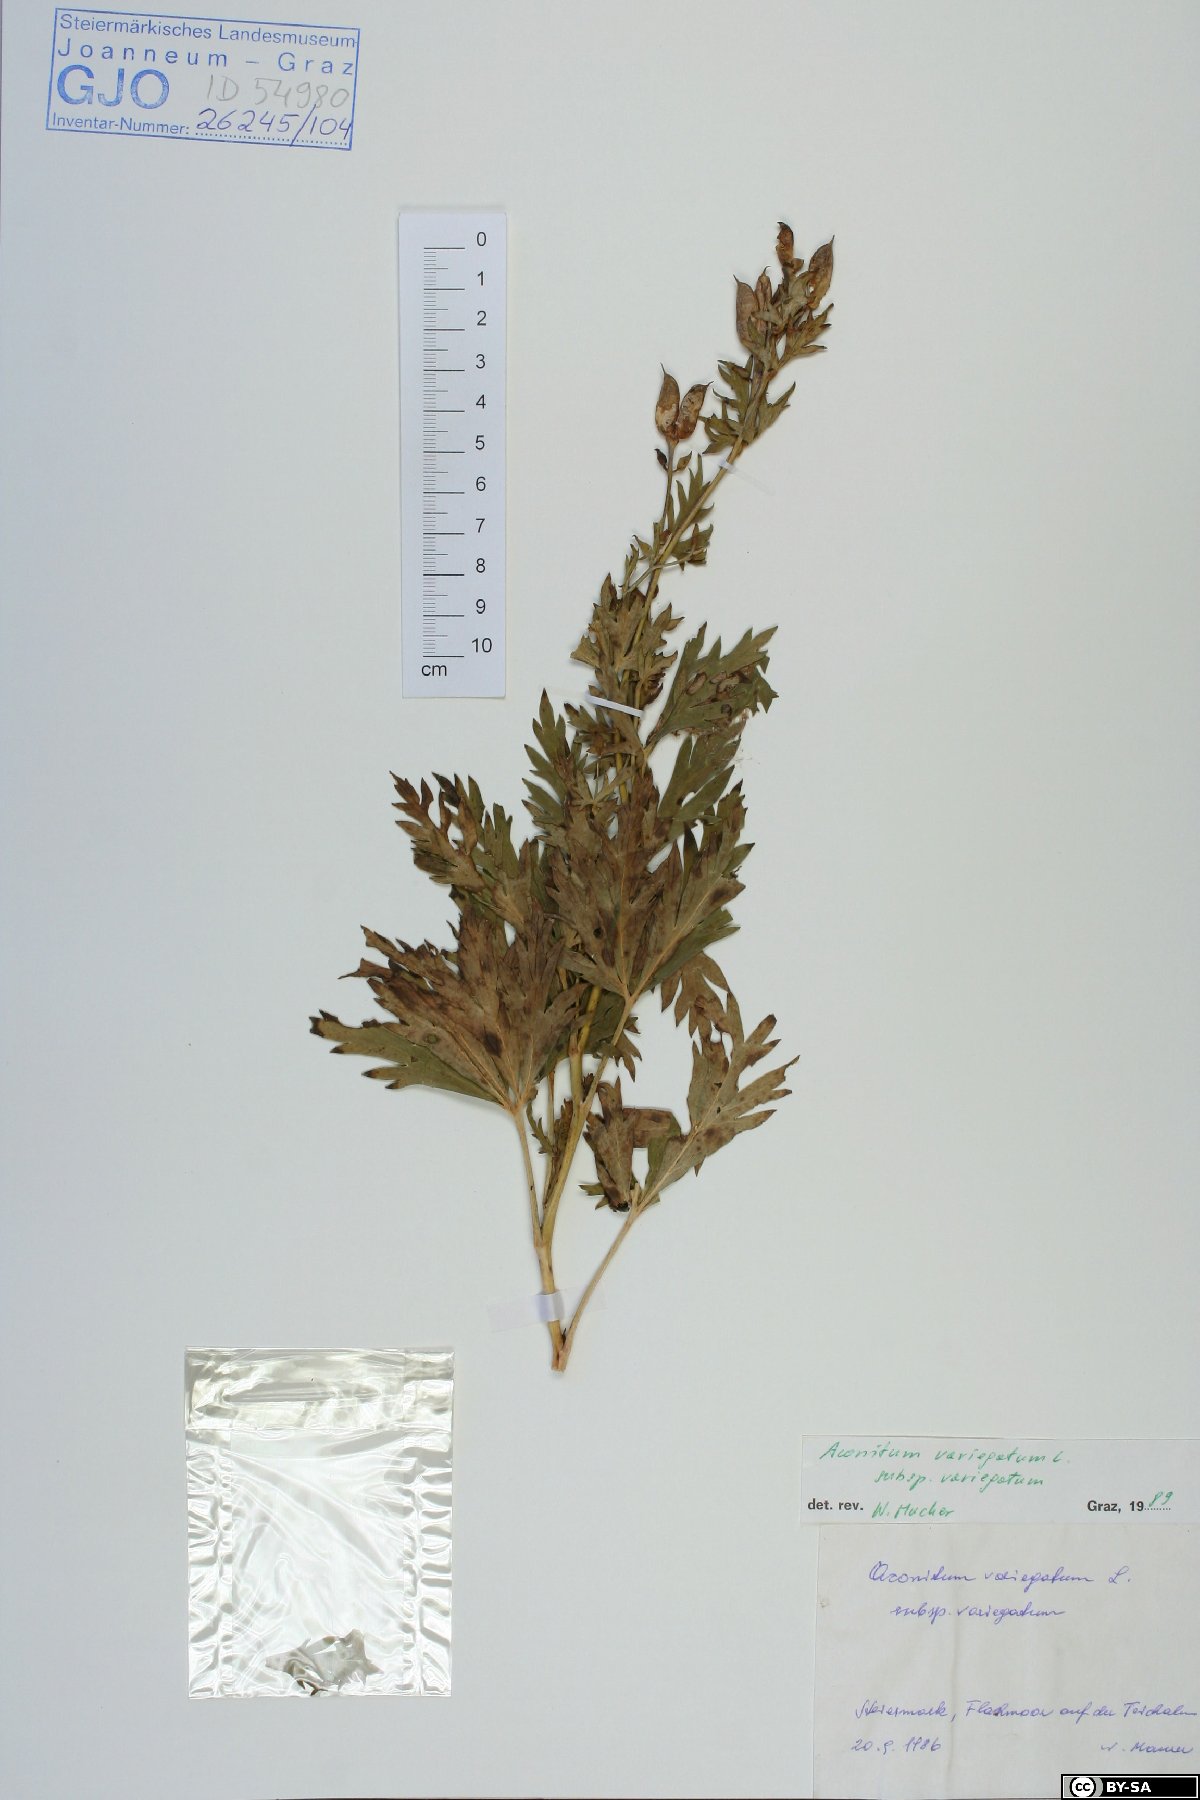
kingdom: Plantae
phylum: Tracheophyta
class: Magnoliopsida
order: Ranunculales
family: Ranunculaceae
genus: Aconitum
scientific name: Aconitum variegatum
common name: Manchurian monkshood
